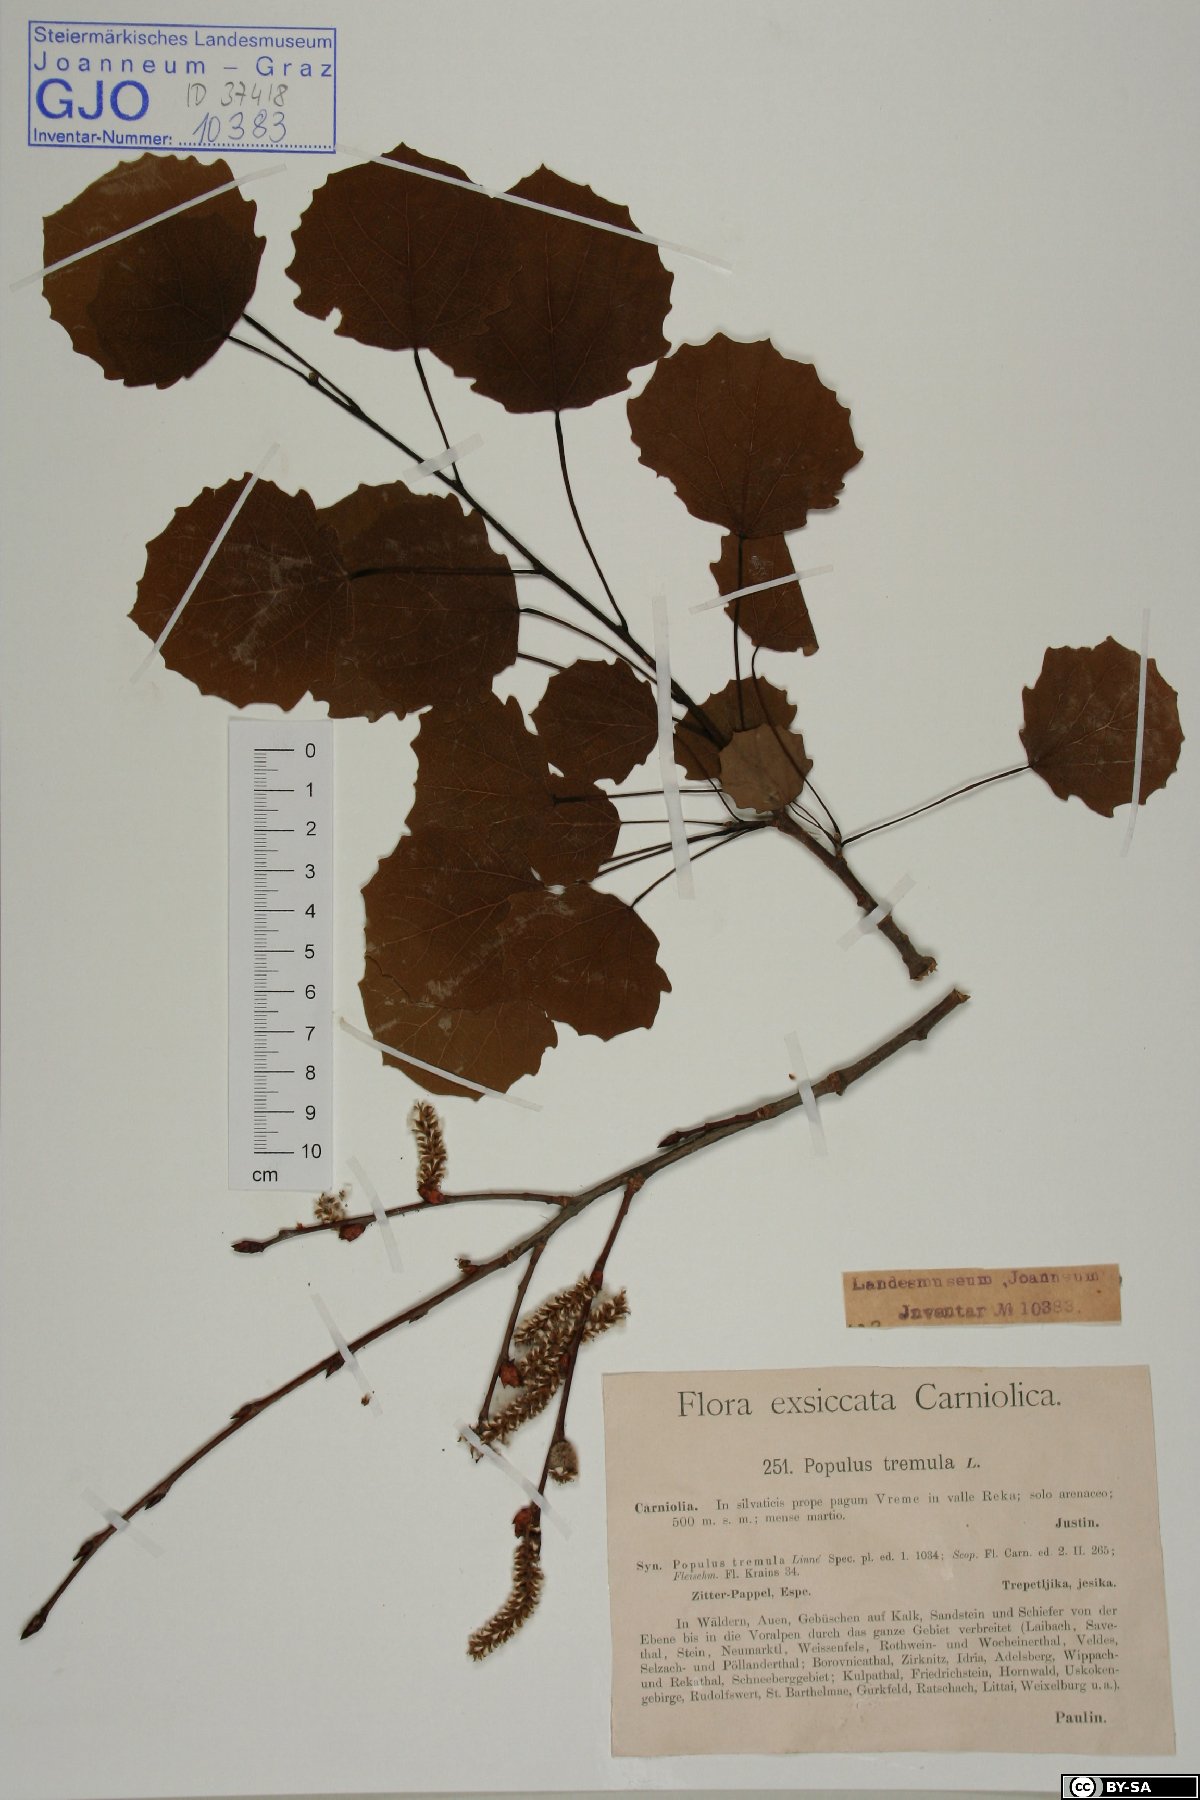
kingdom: Plantae
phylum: Tracheophyta
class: Magnoliopsida
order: Malpighiales
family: Salicaceae
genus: Populus
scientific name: Populus tremula
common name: European aspen
